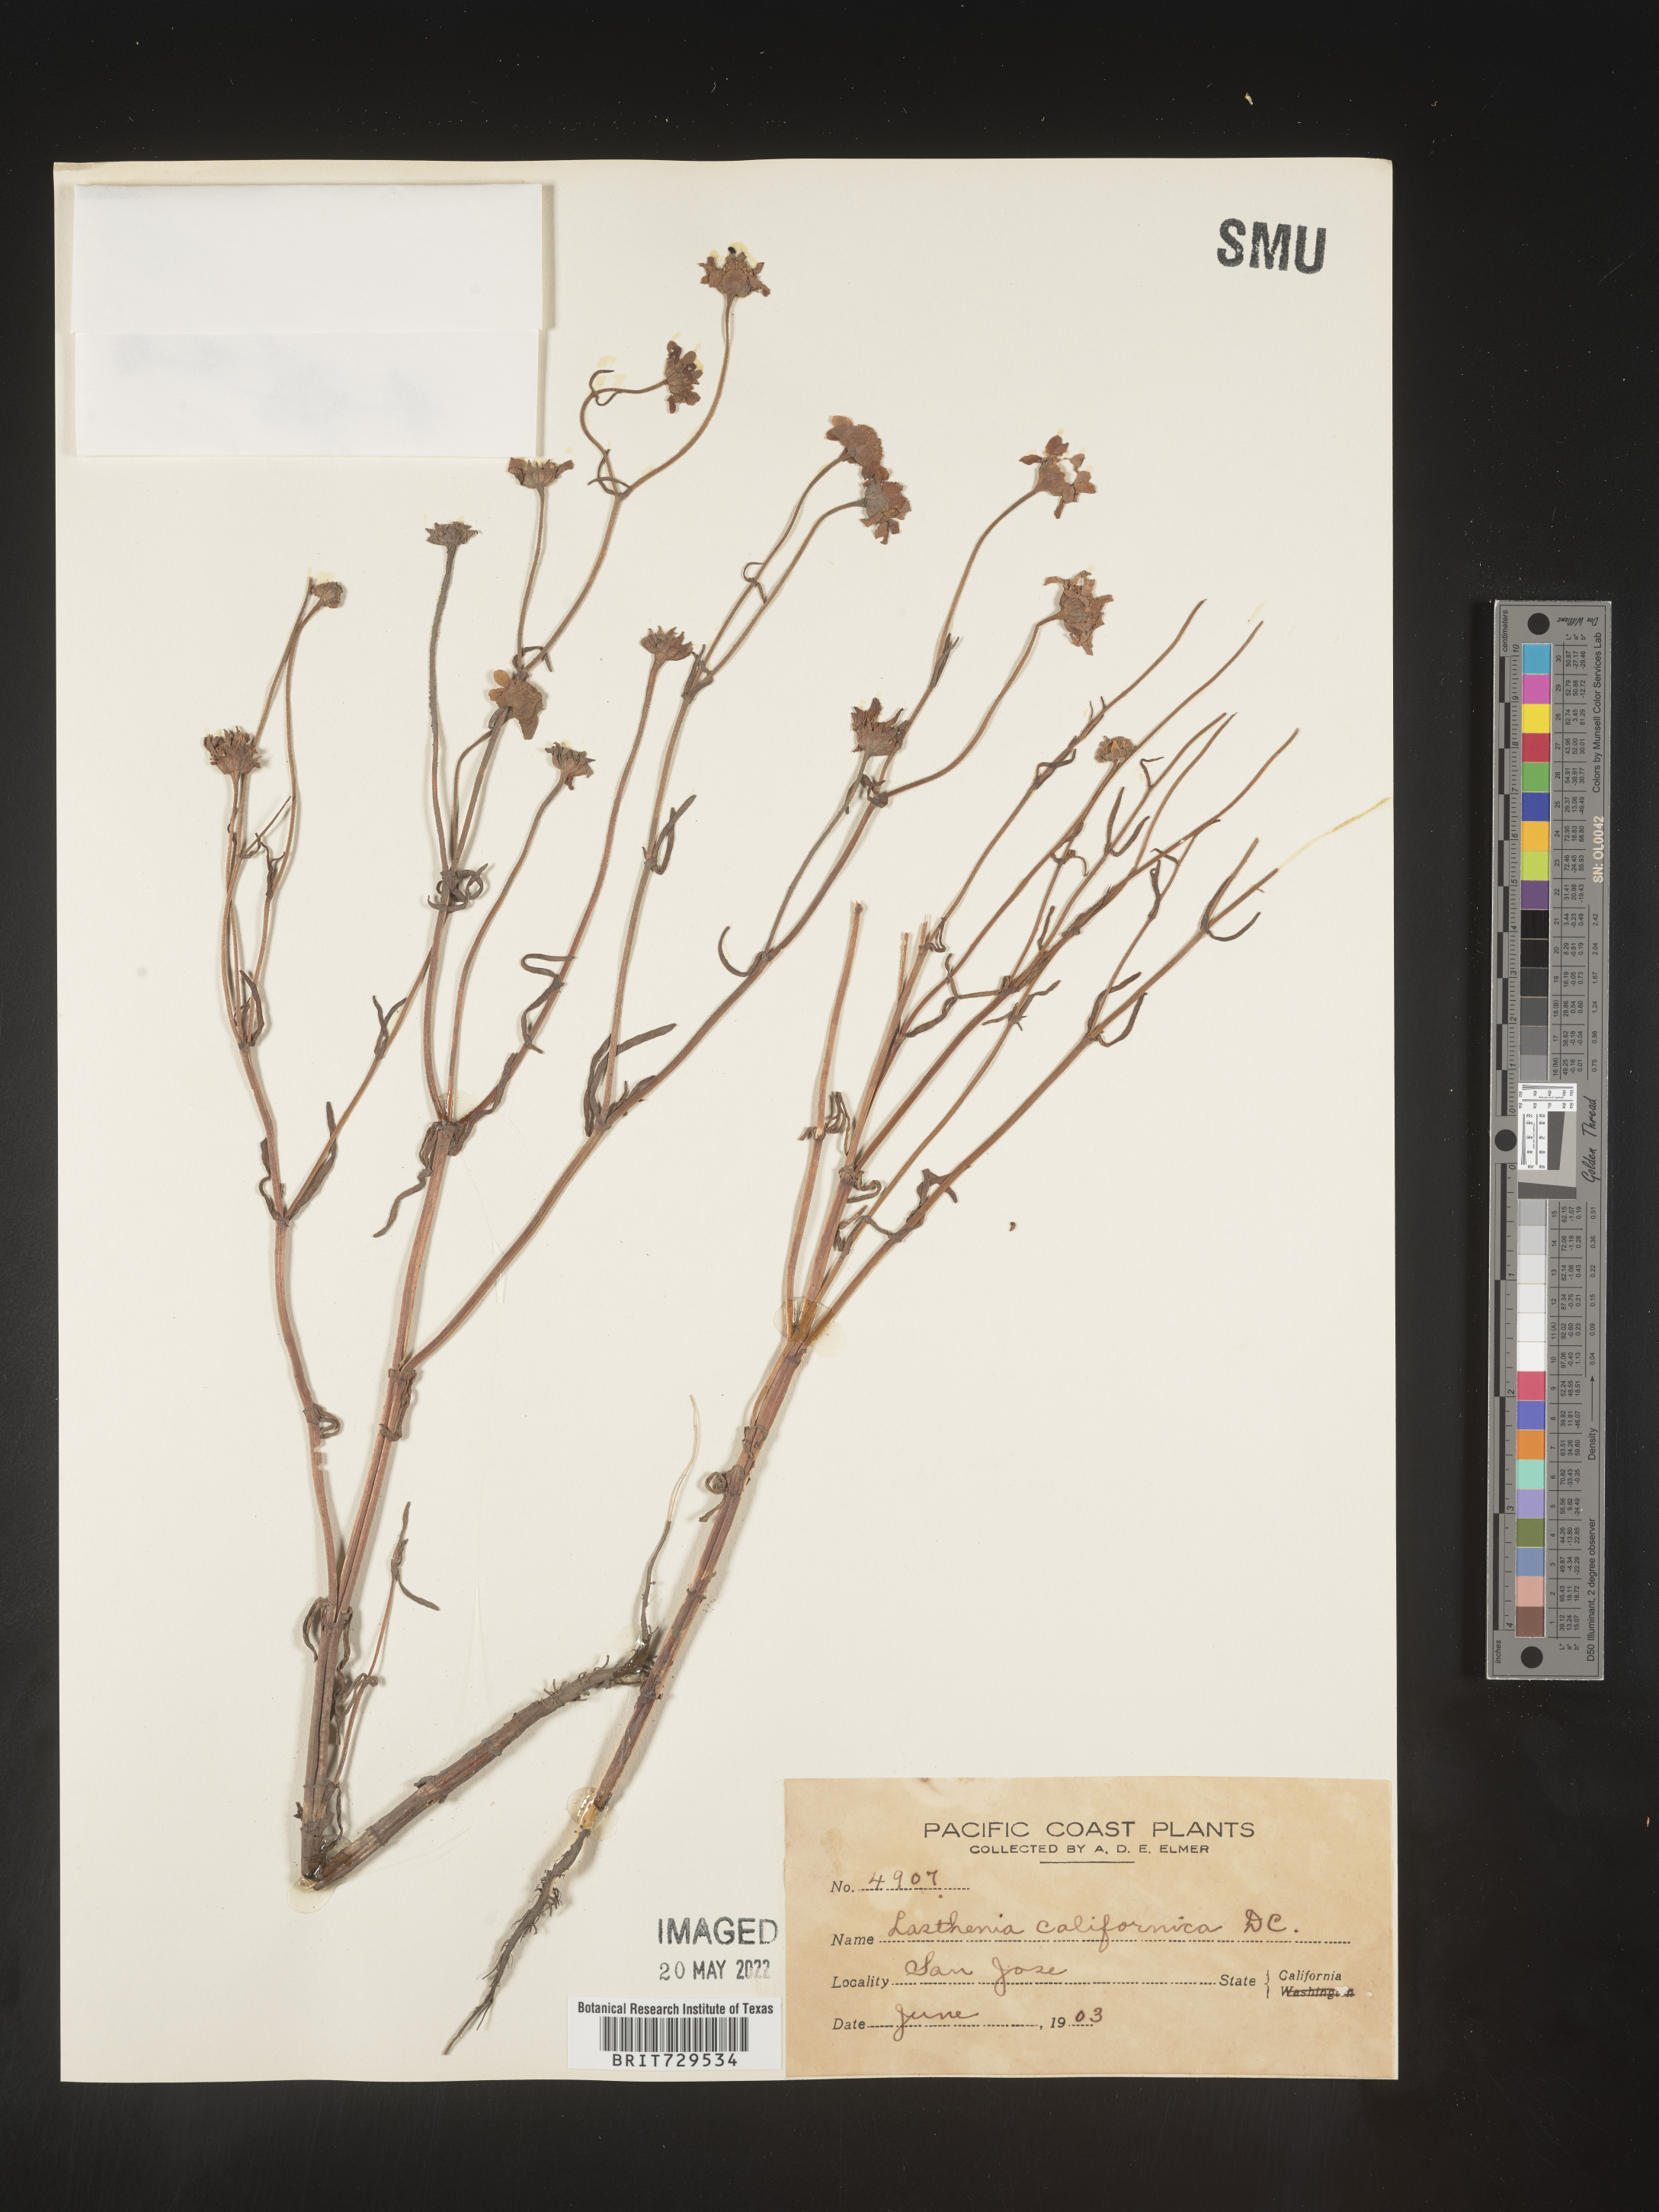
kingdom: Plantae
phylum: Tracheophyta
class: Magnoliopsida
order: Asterales
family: Asteraceae
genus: Lasthenia
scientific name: Lasthenia
